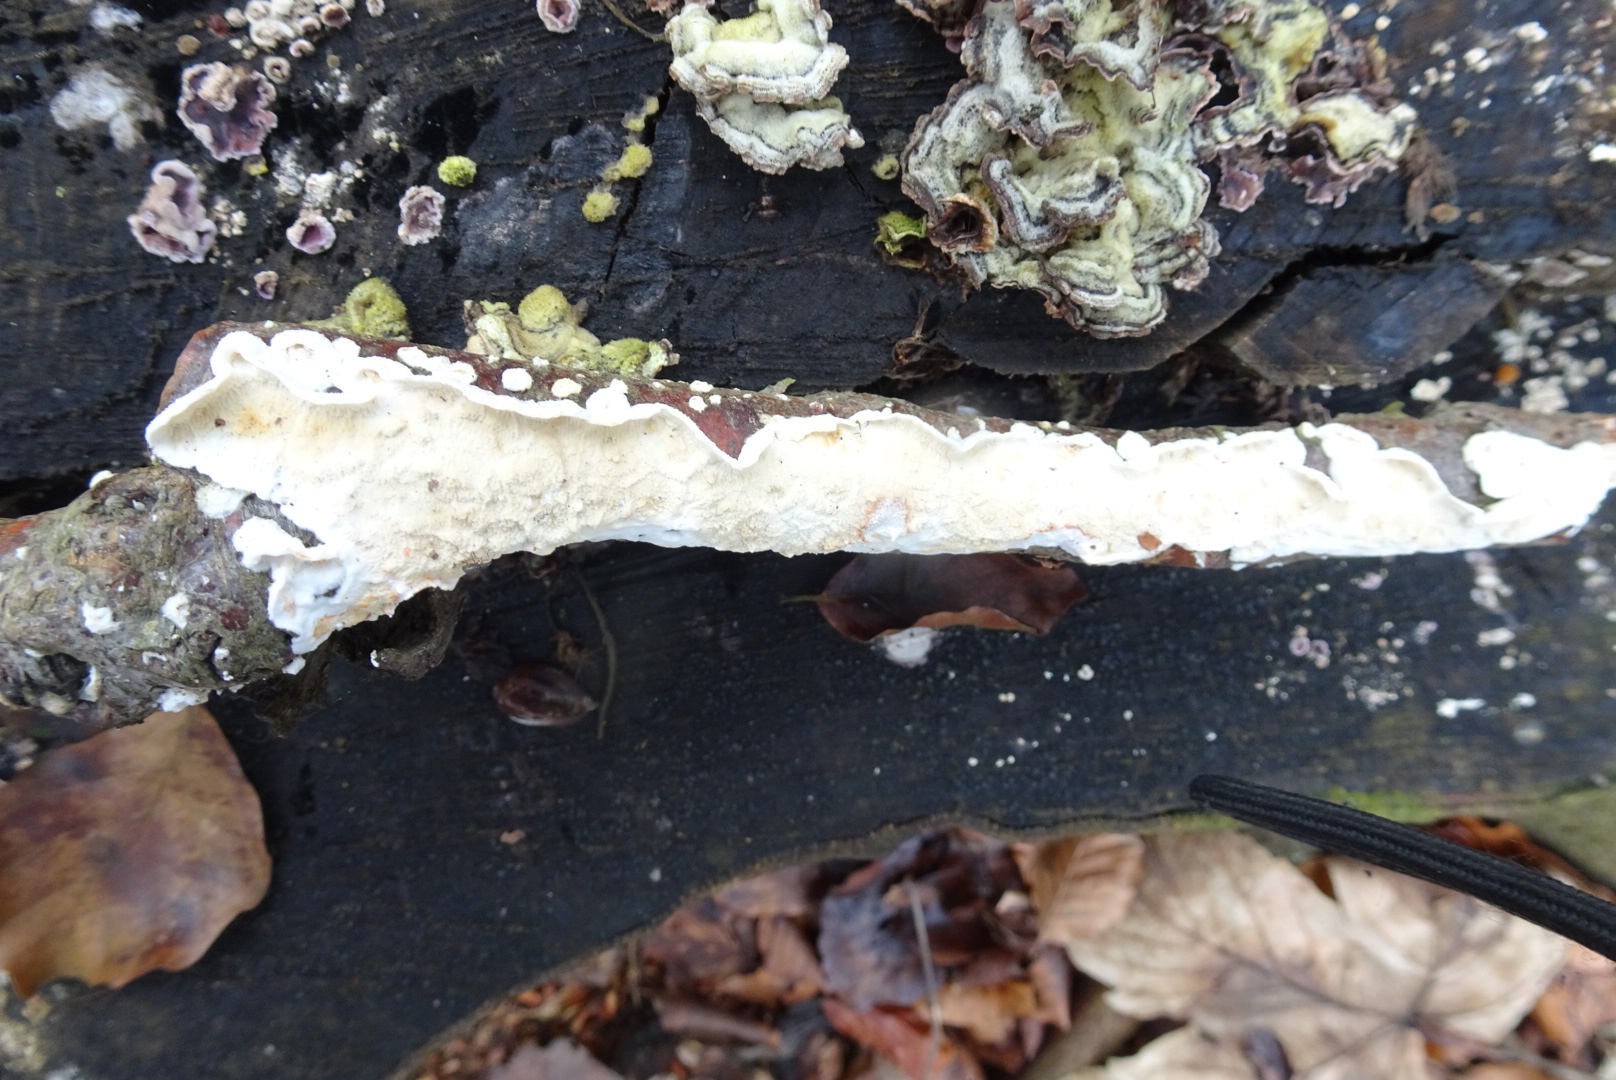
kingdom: Fungi
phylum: Basidiomycota
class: Agaricomycetes
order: Polyporales
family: Irpicaceae
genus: Byssomerulius
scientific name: Byssomerulius corium
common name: læder-åresvamp
